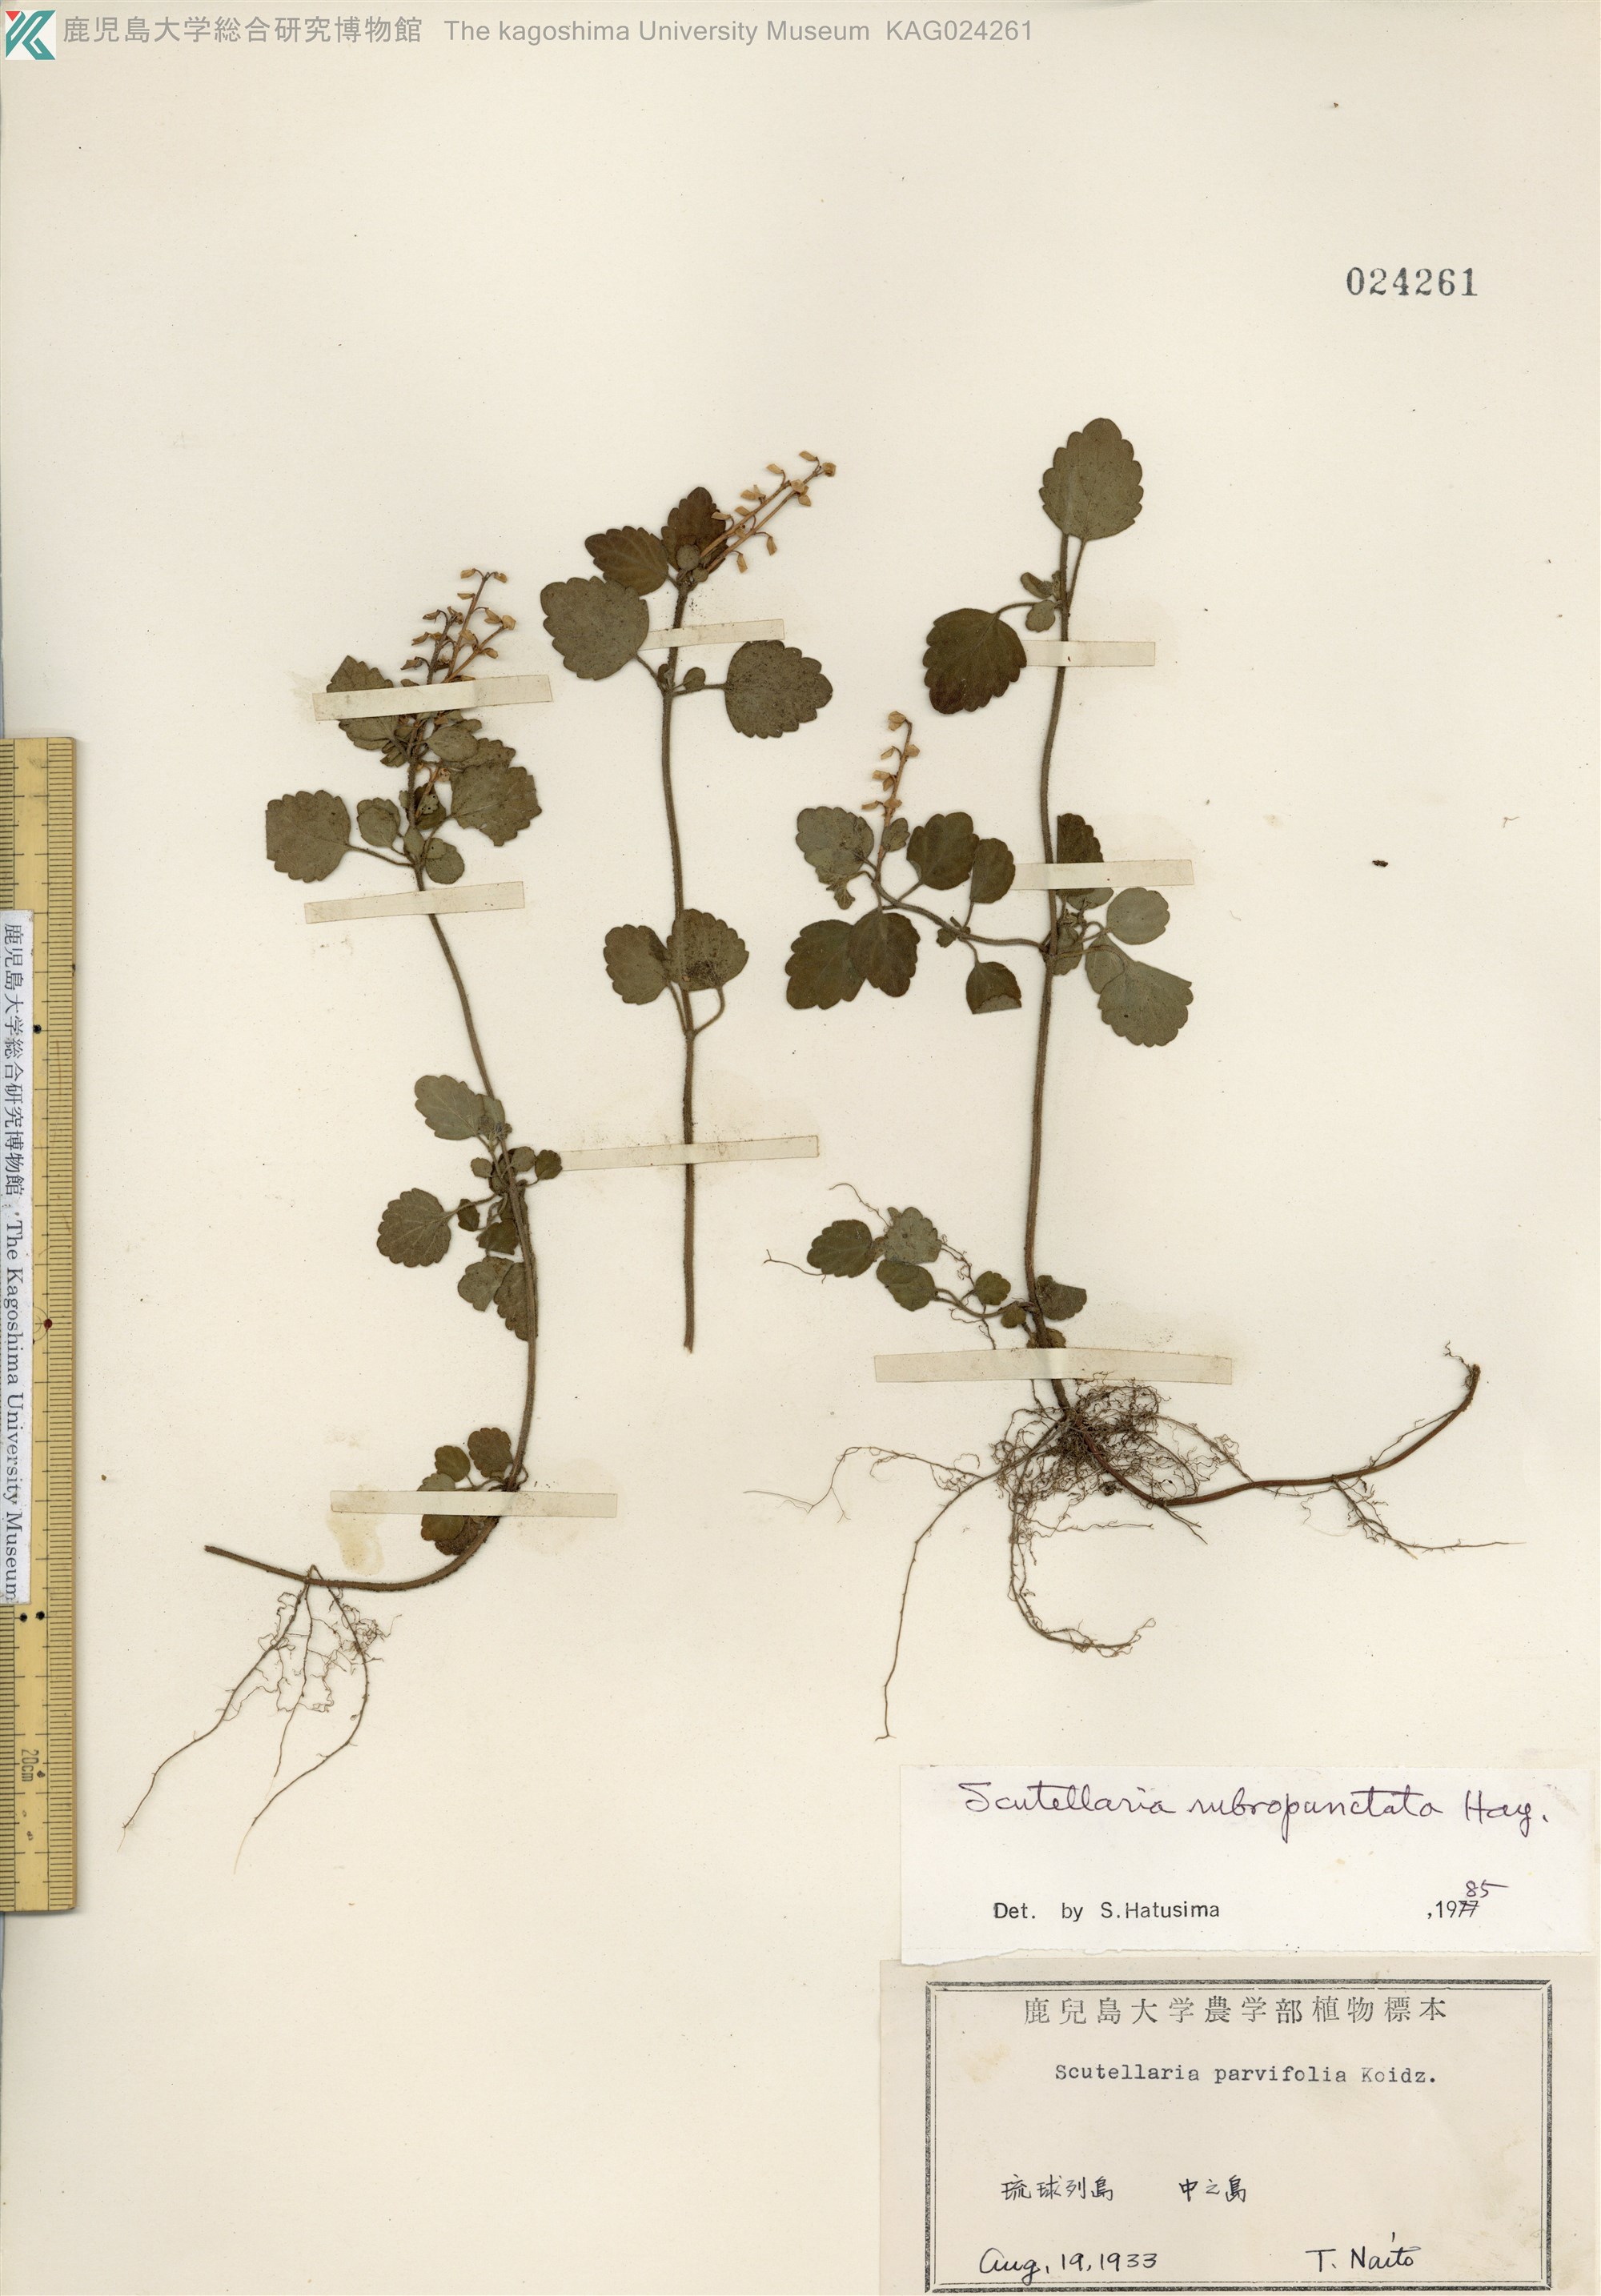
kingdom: Plantae
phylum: Tracheophyta
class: Magnoliopsida
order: Lamiales
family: Lamiaceae
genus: Scutellaria
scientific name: Scutellaria rubropunctata
